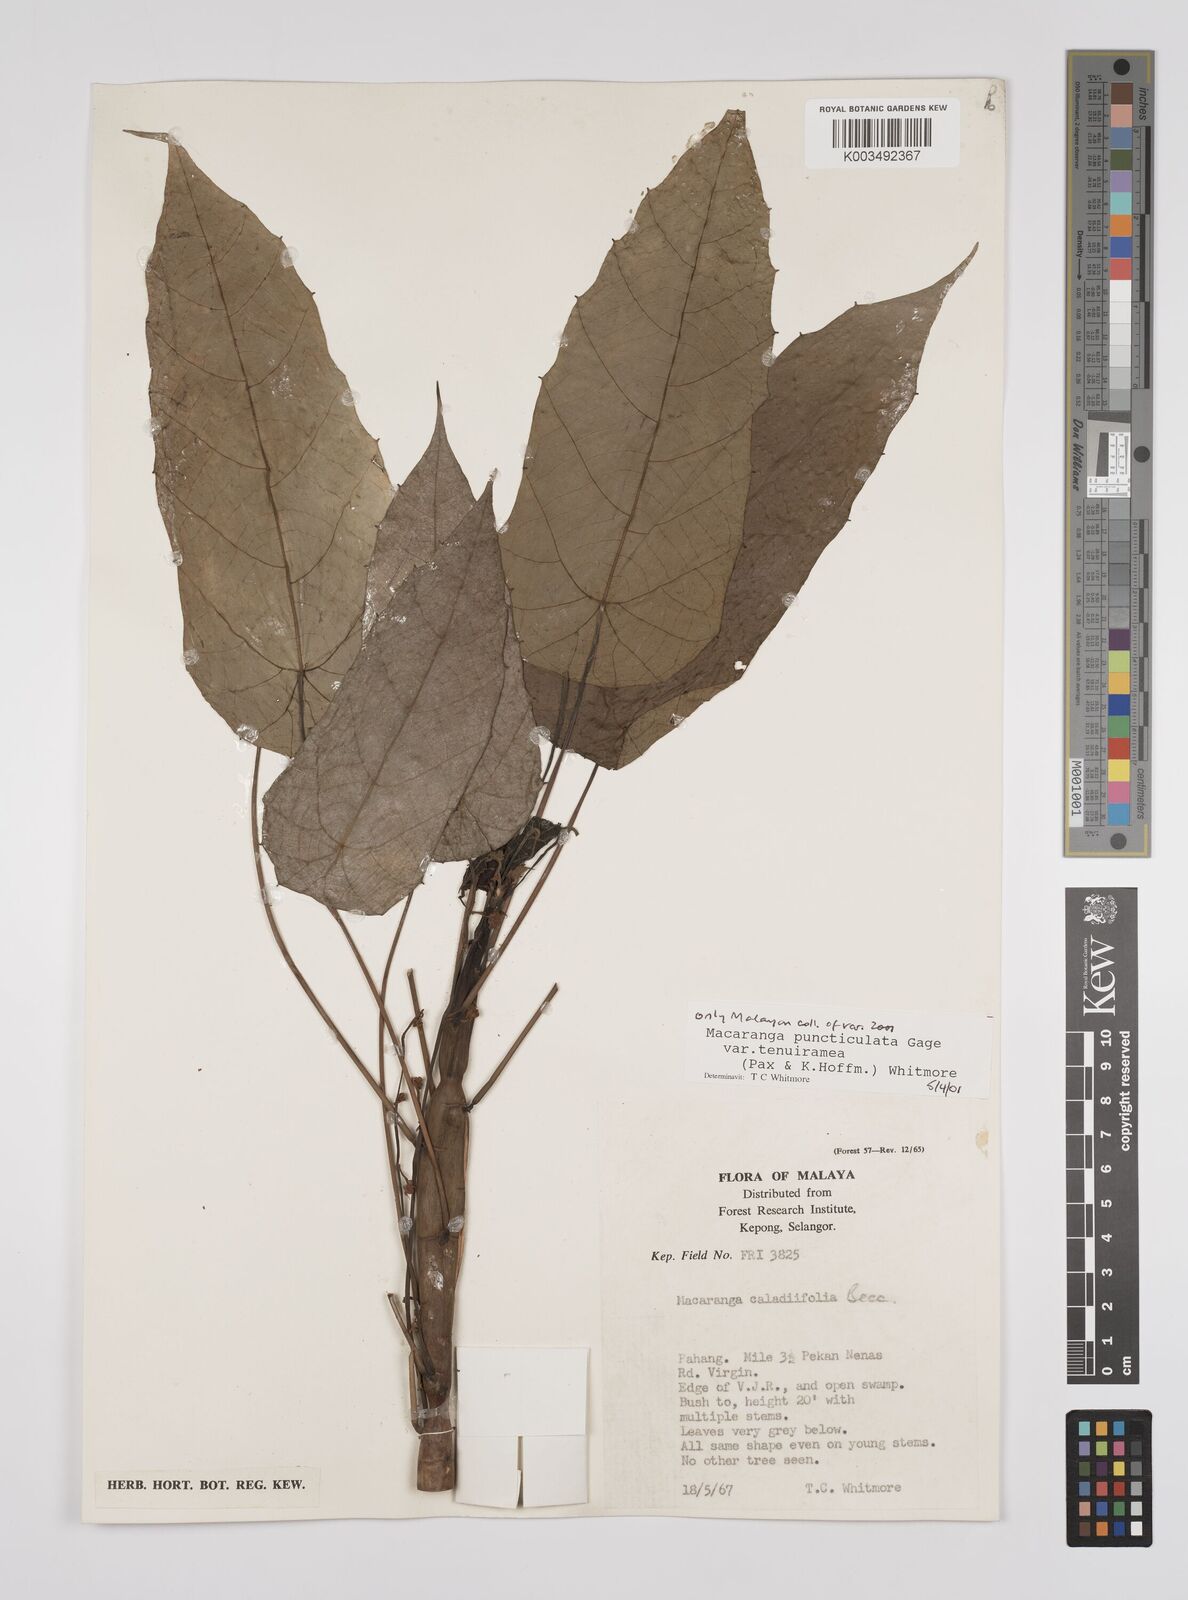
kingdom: Plantae
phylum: Tracheophyta
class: Magnoliopsida
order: Malpighiales
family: Euphorbiaceae
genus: Macaranga
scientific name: Macaranga puncticulata
